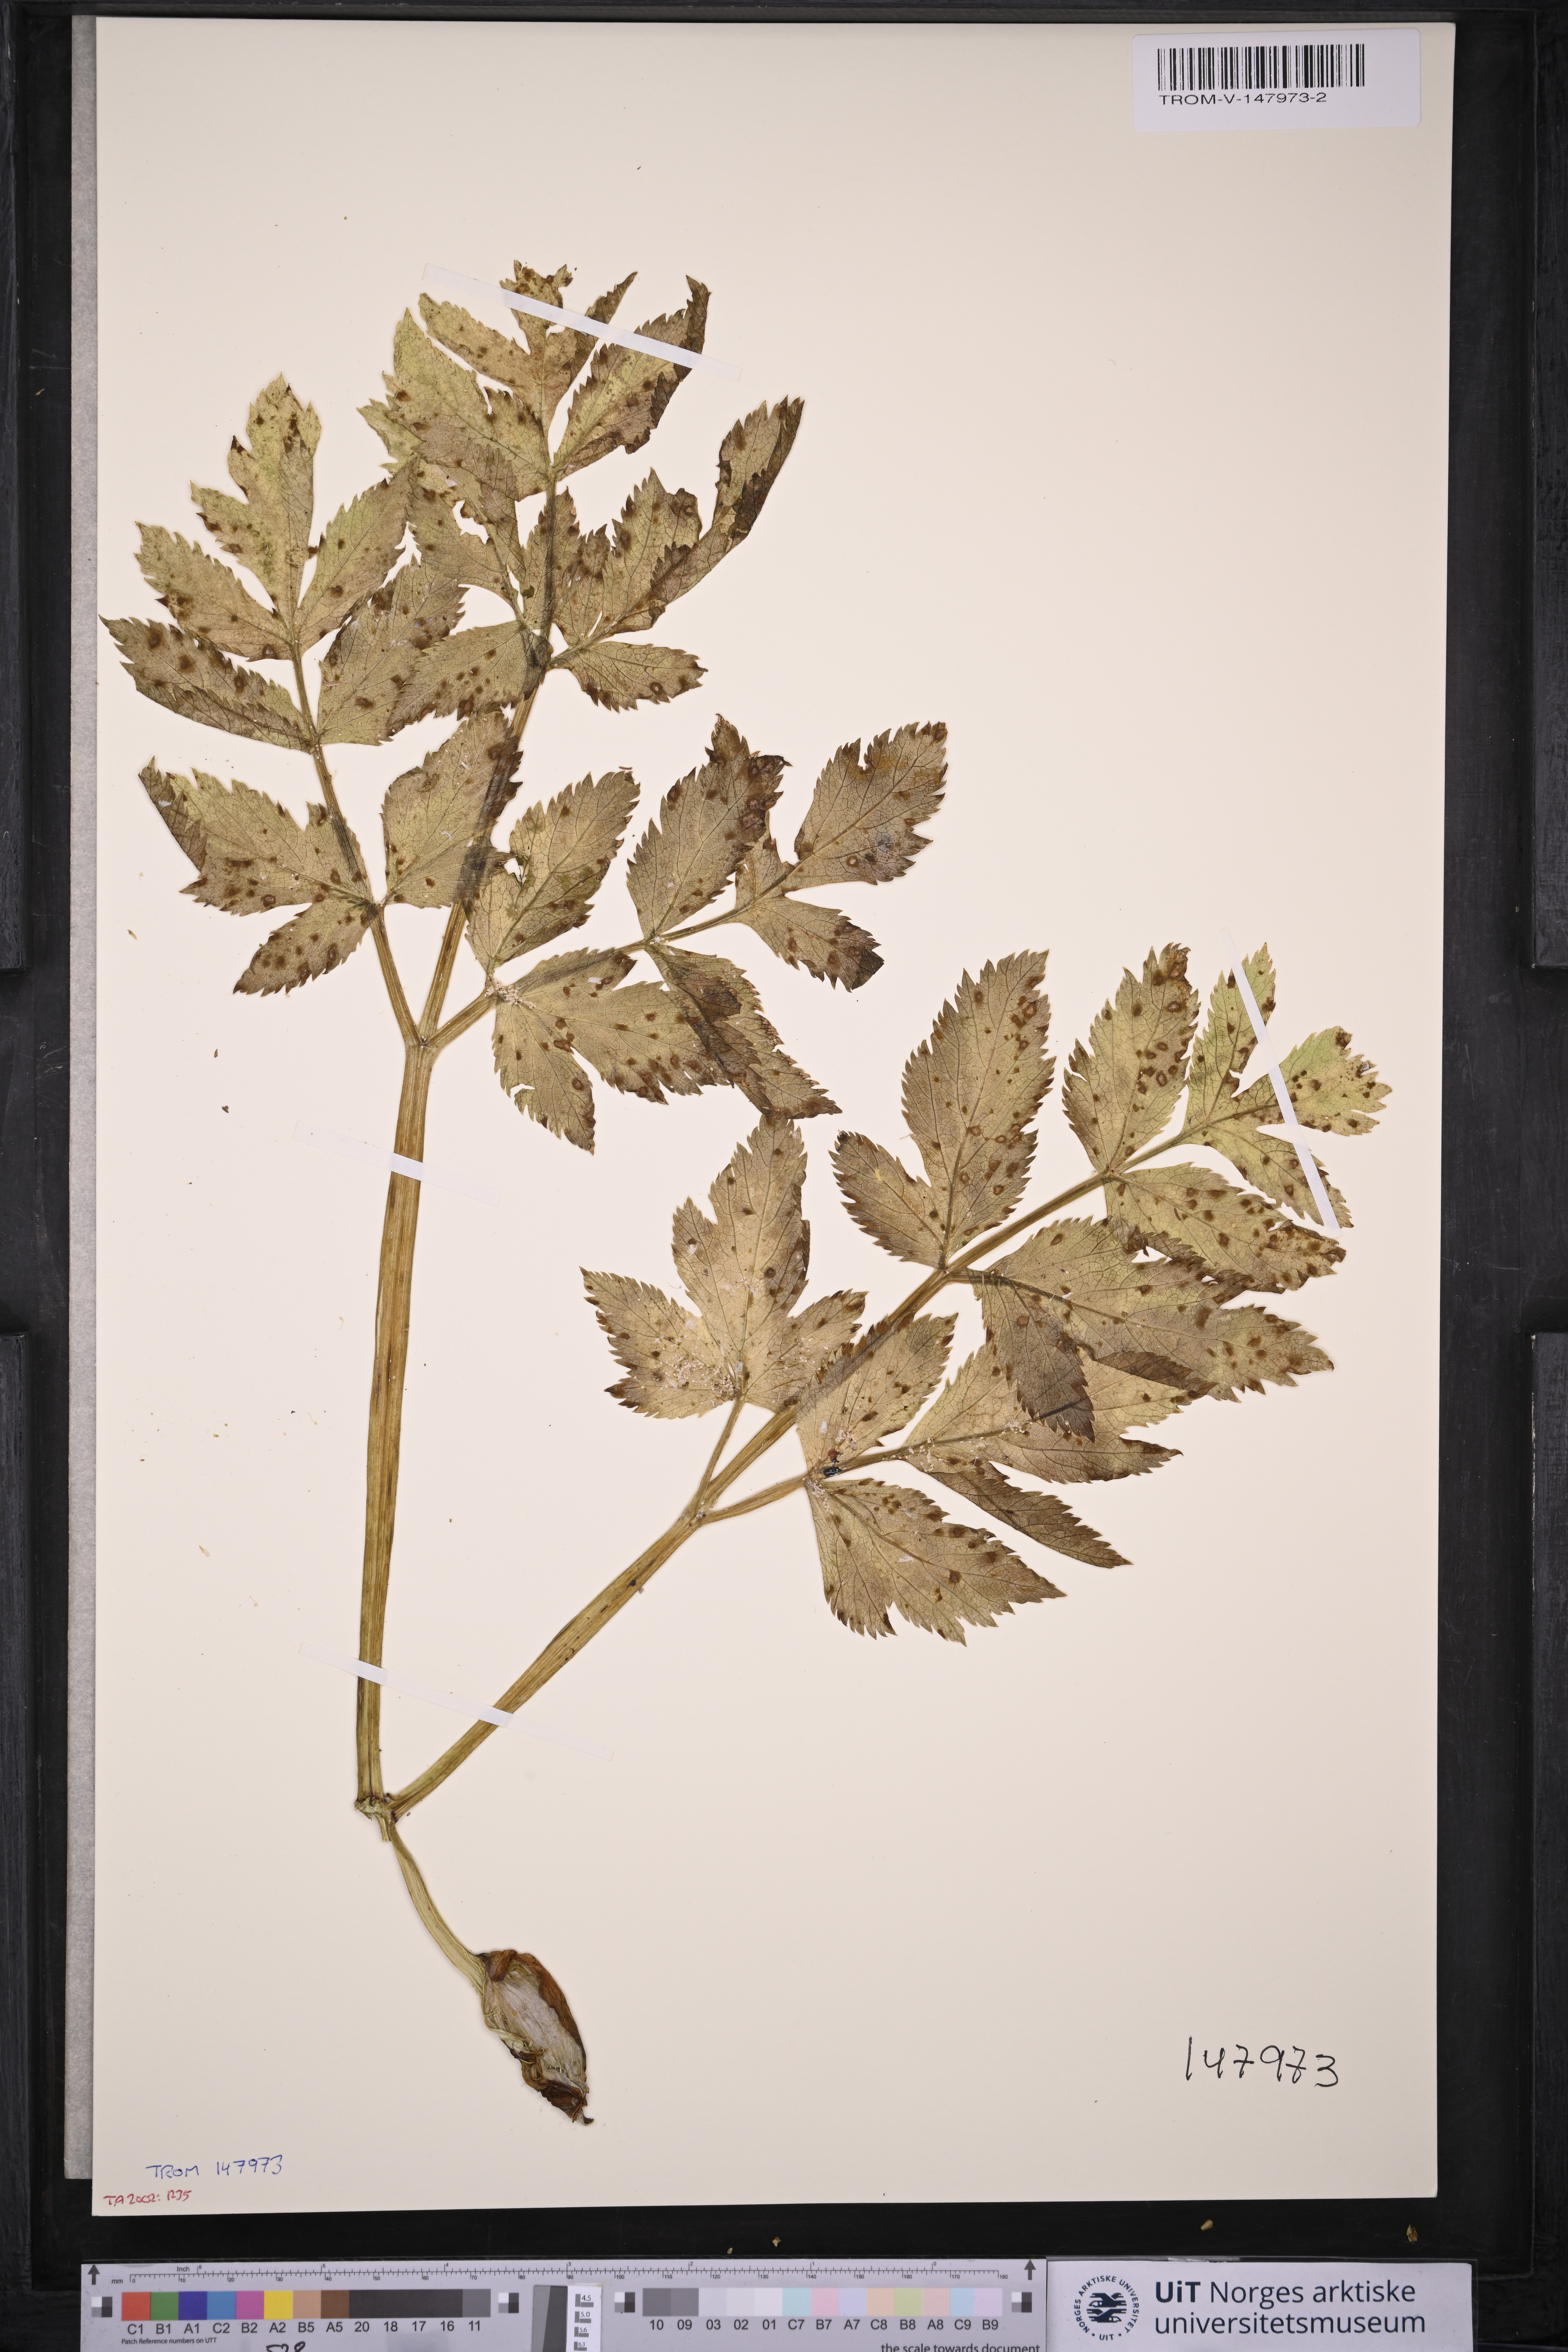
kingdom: Plantae
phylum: Tracheophyta
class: Magnoliopsida
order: Apiales
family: Apiaceae
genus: Angelica
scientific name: Angelica archangelica
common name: Garden angelica
